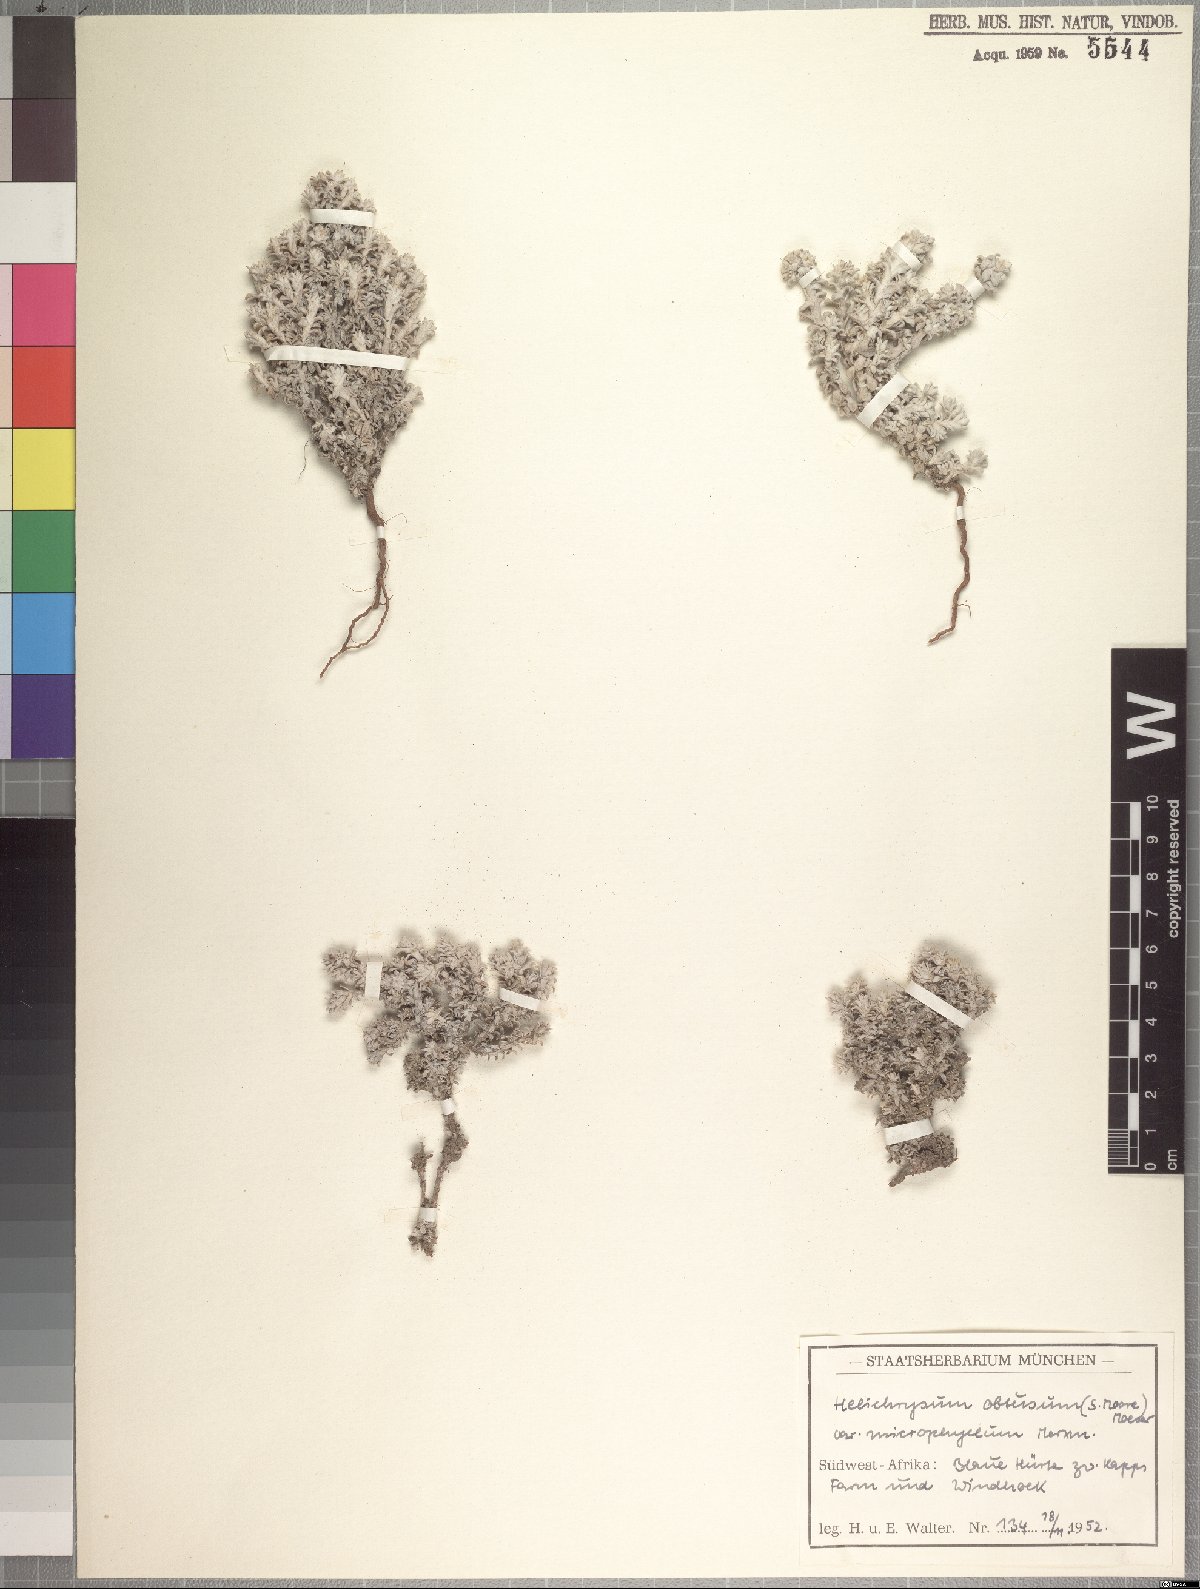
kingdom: Plantae
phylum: Tracheophyta
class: Magnoliopsida
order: Asterales
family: Asteraceae
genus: Helichrysum
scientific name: Helichrysum obtusum
